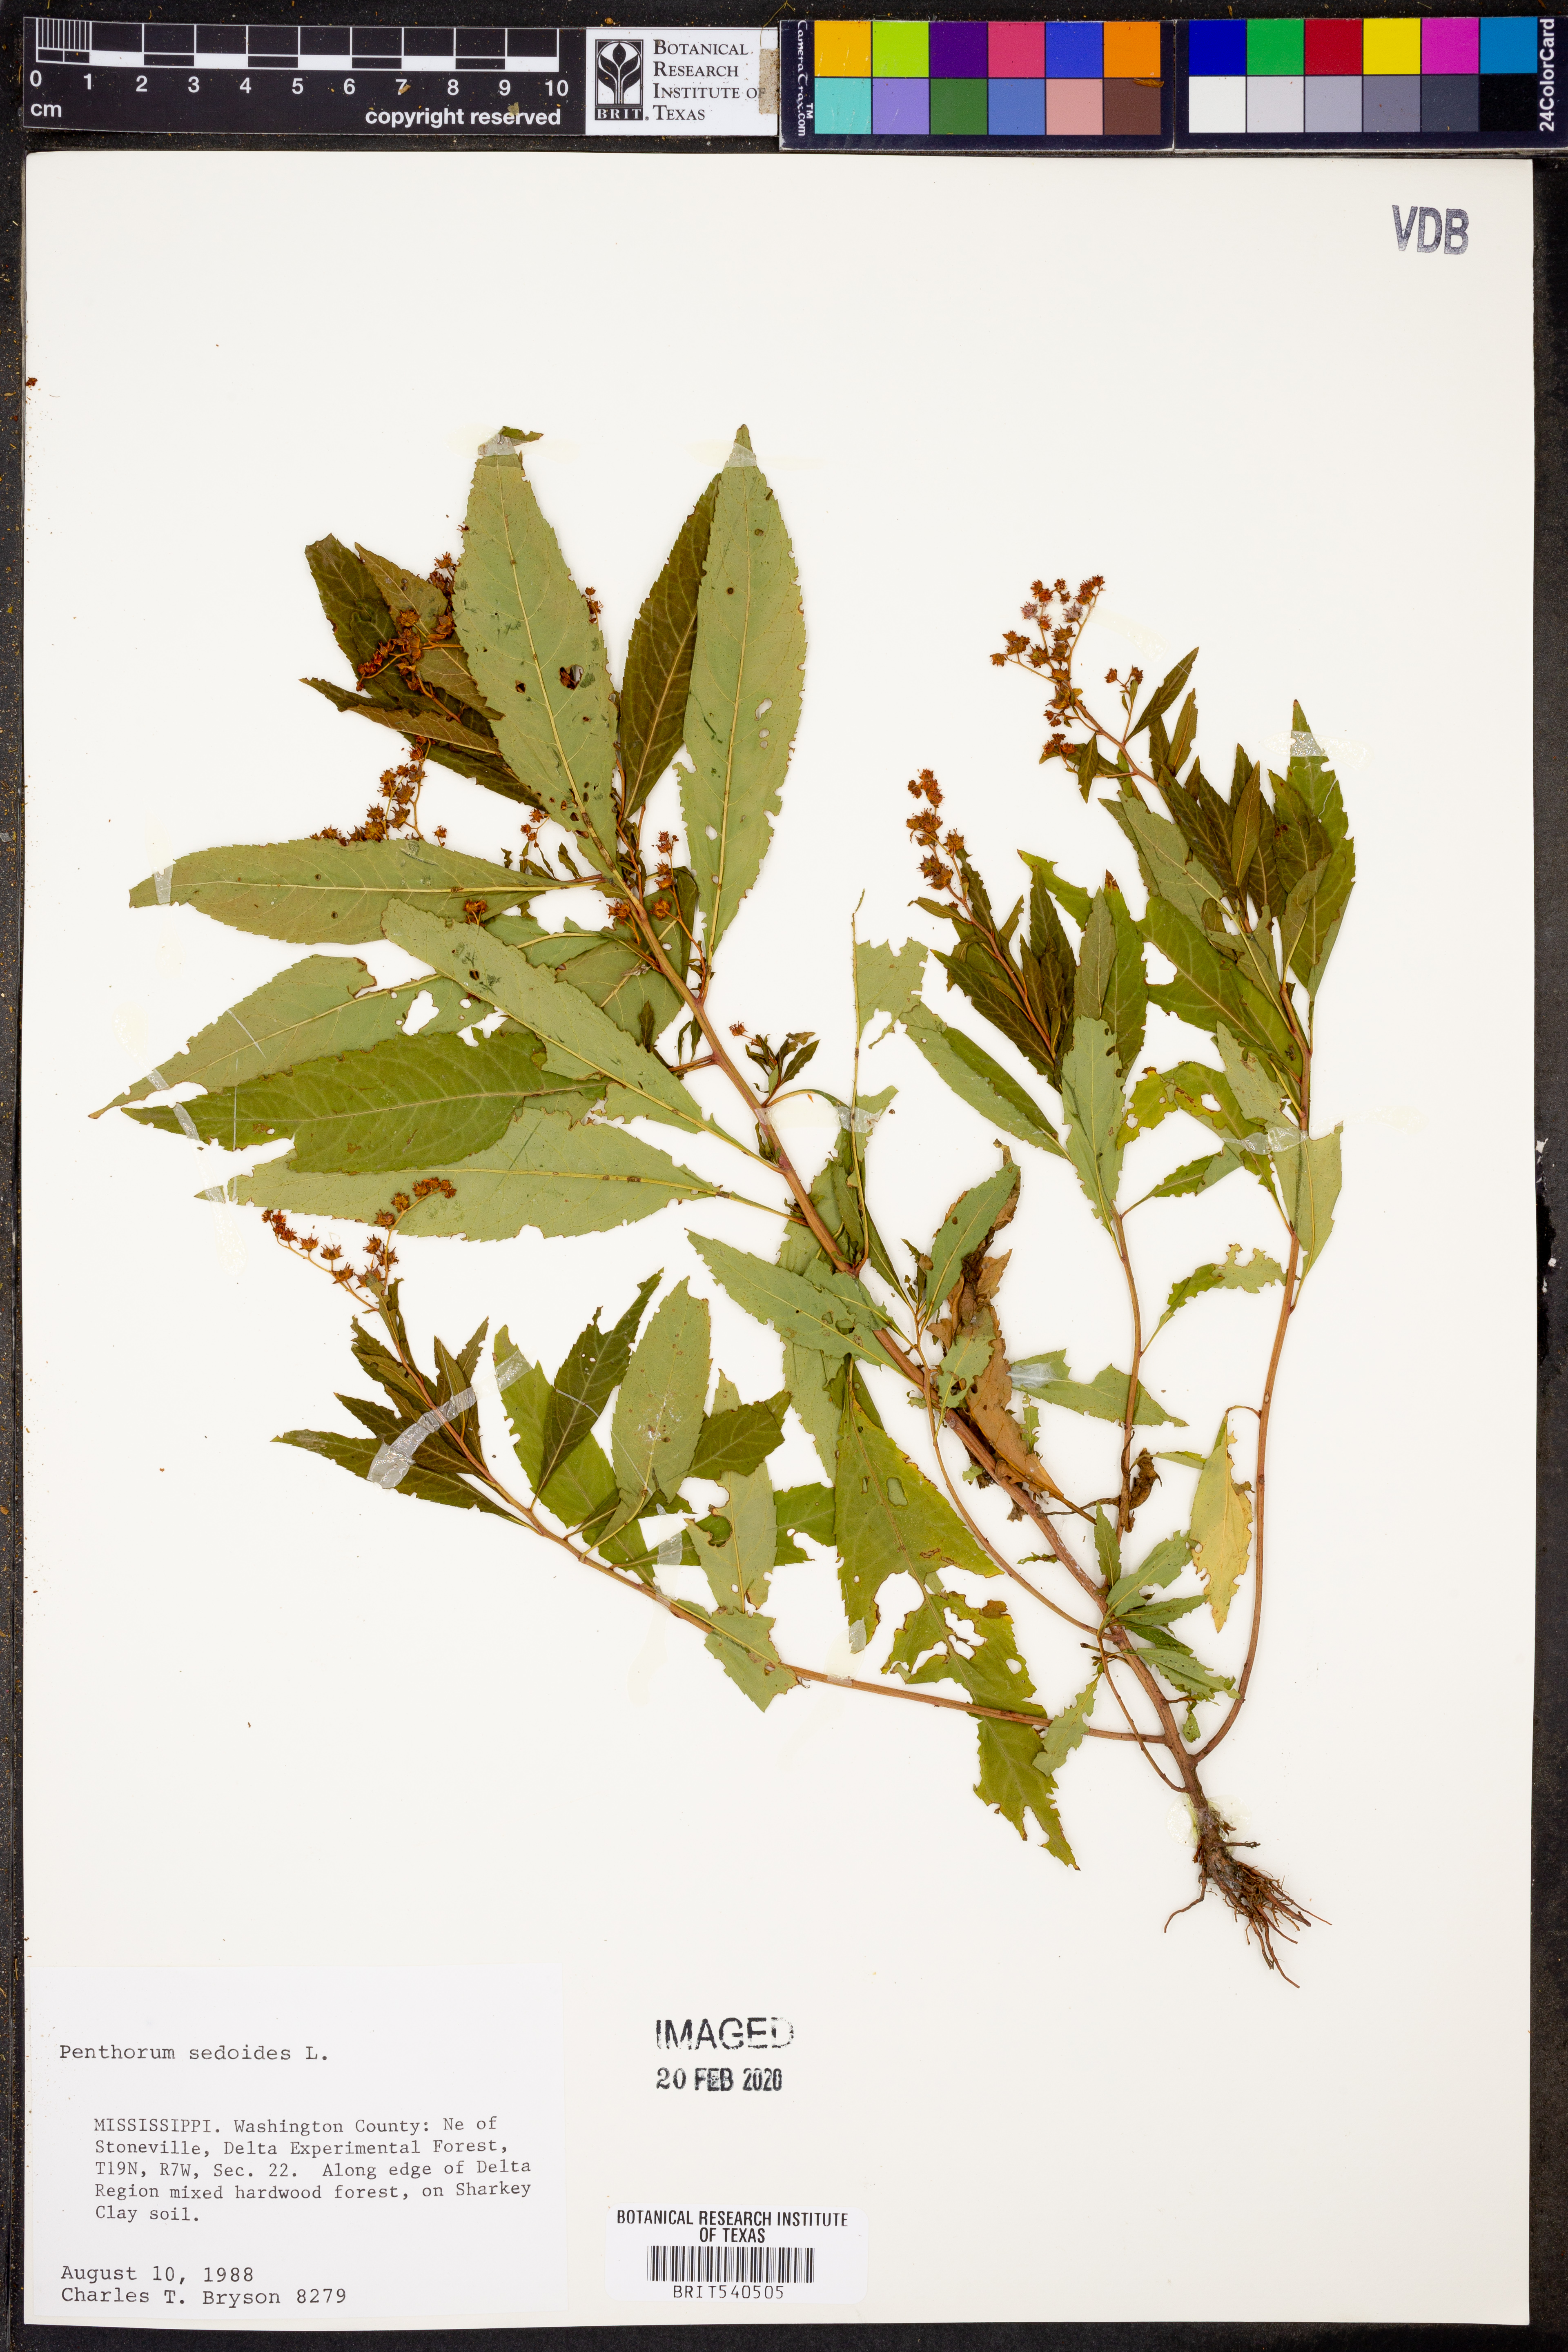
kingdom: Plantae
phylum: Tracheophyta
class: Magnoliopsida
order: Saxifragales
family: Penthoraceae
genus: Penthorum
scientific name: Penthorum sedoides
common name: Ditch stonecrop
